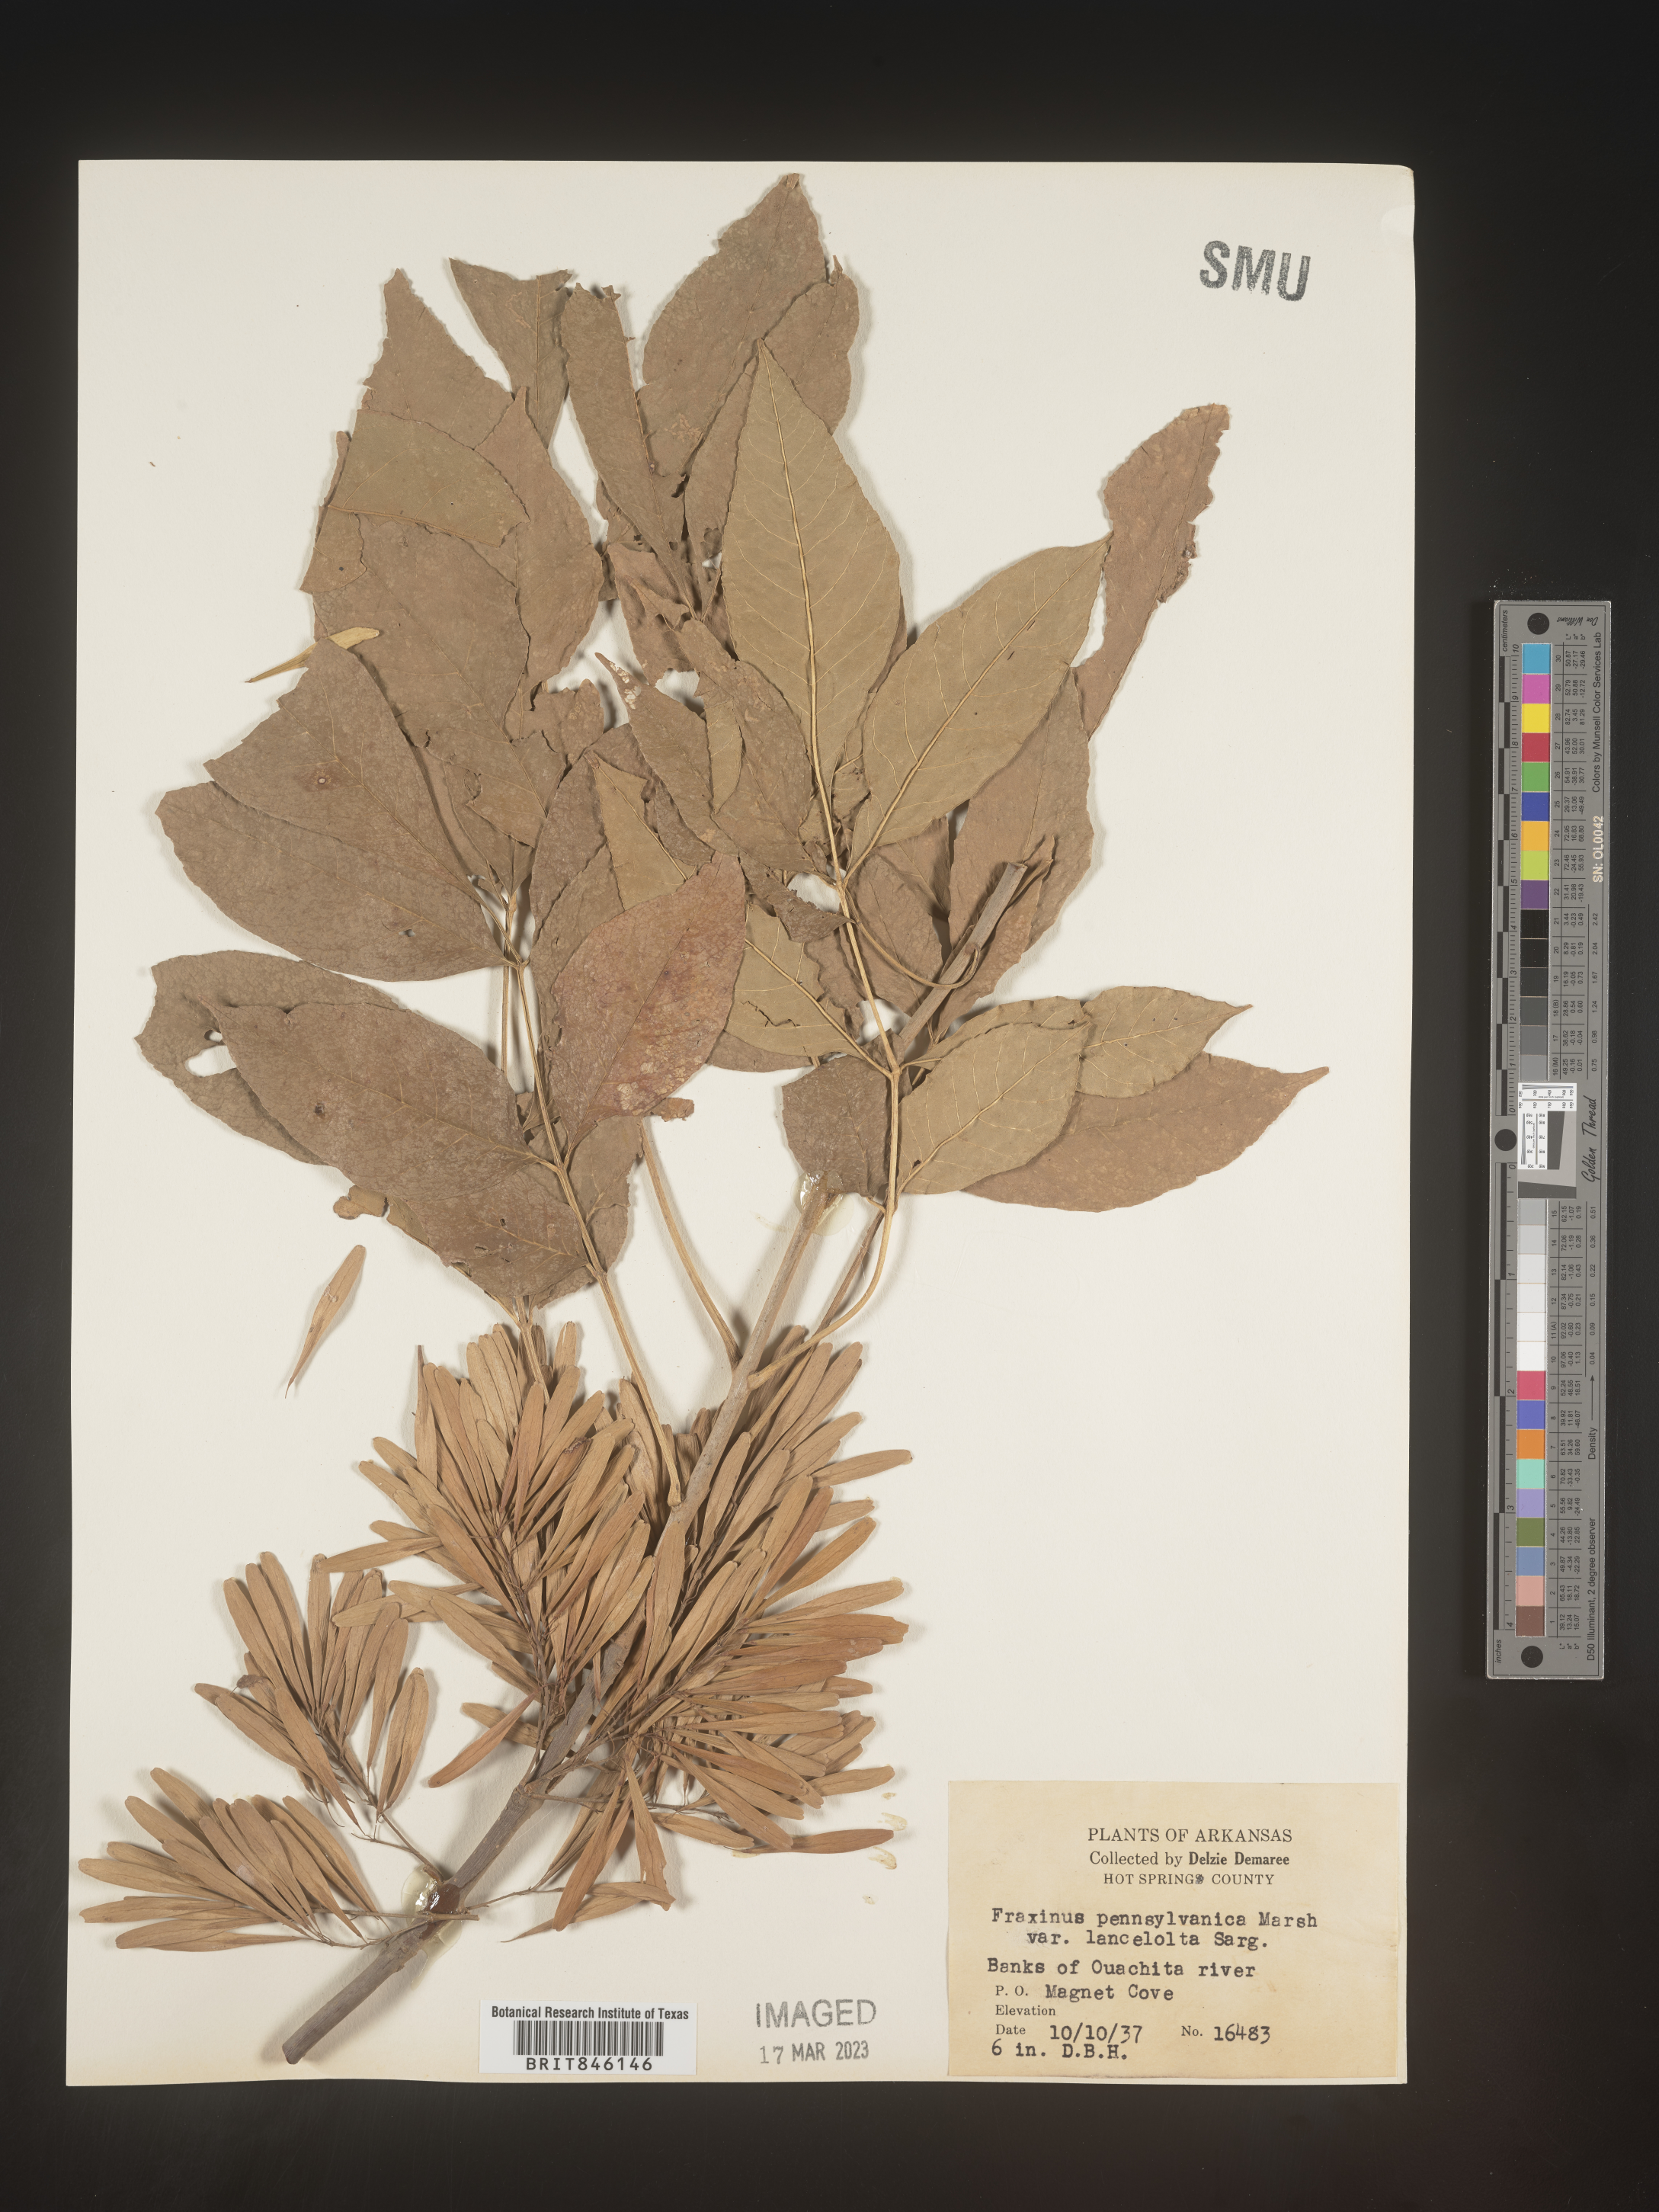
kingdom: Plantae
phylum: Tracheophyta
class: Magnoliopsida
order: Lamiales
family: Oleaceae
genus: Fraxinus
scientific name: Fraxinus pennsylvanica
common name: Green ash
